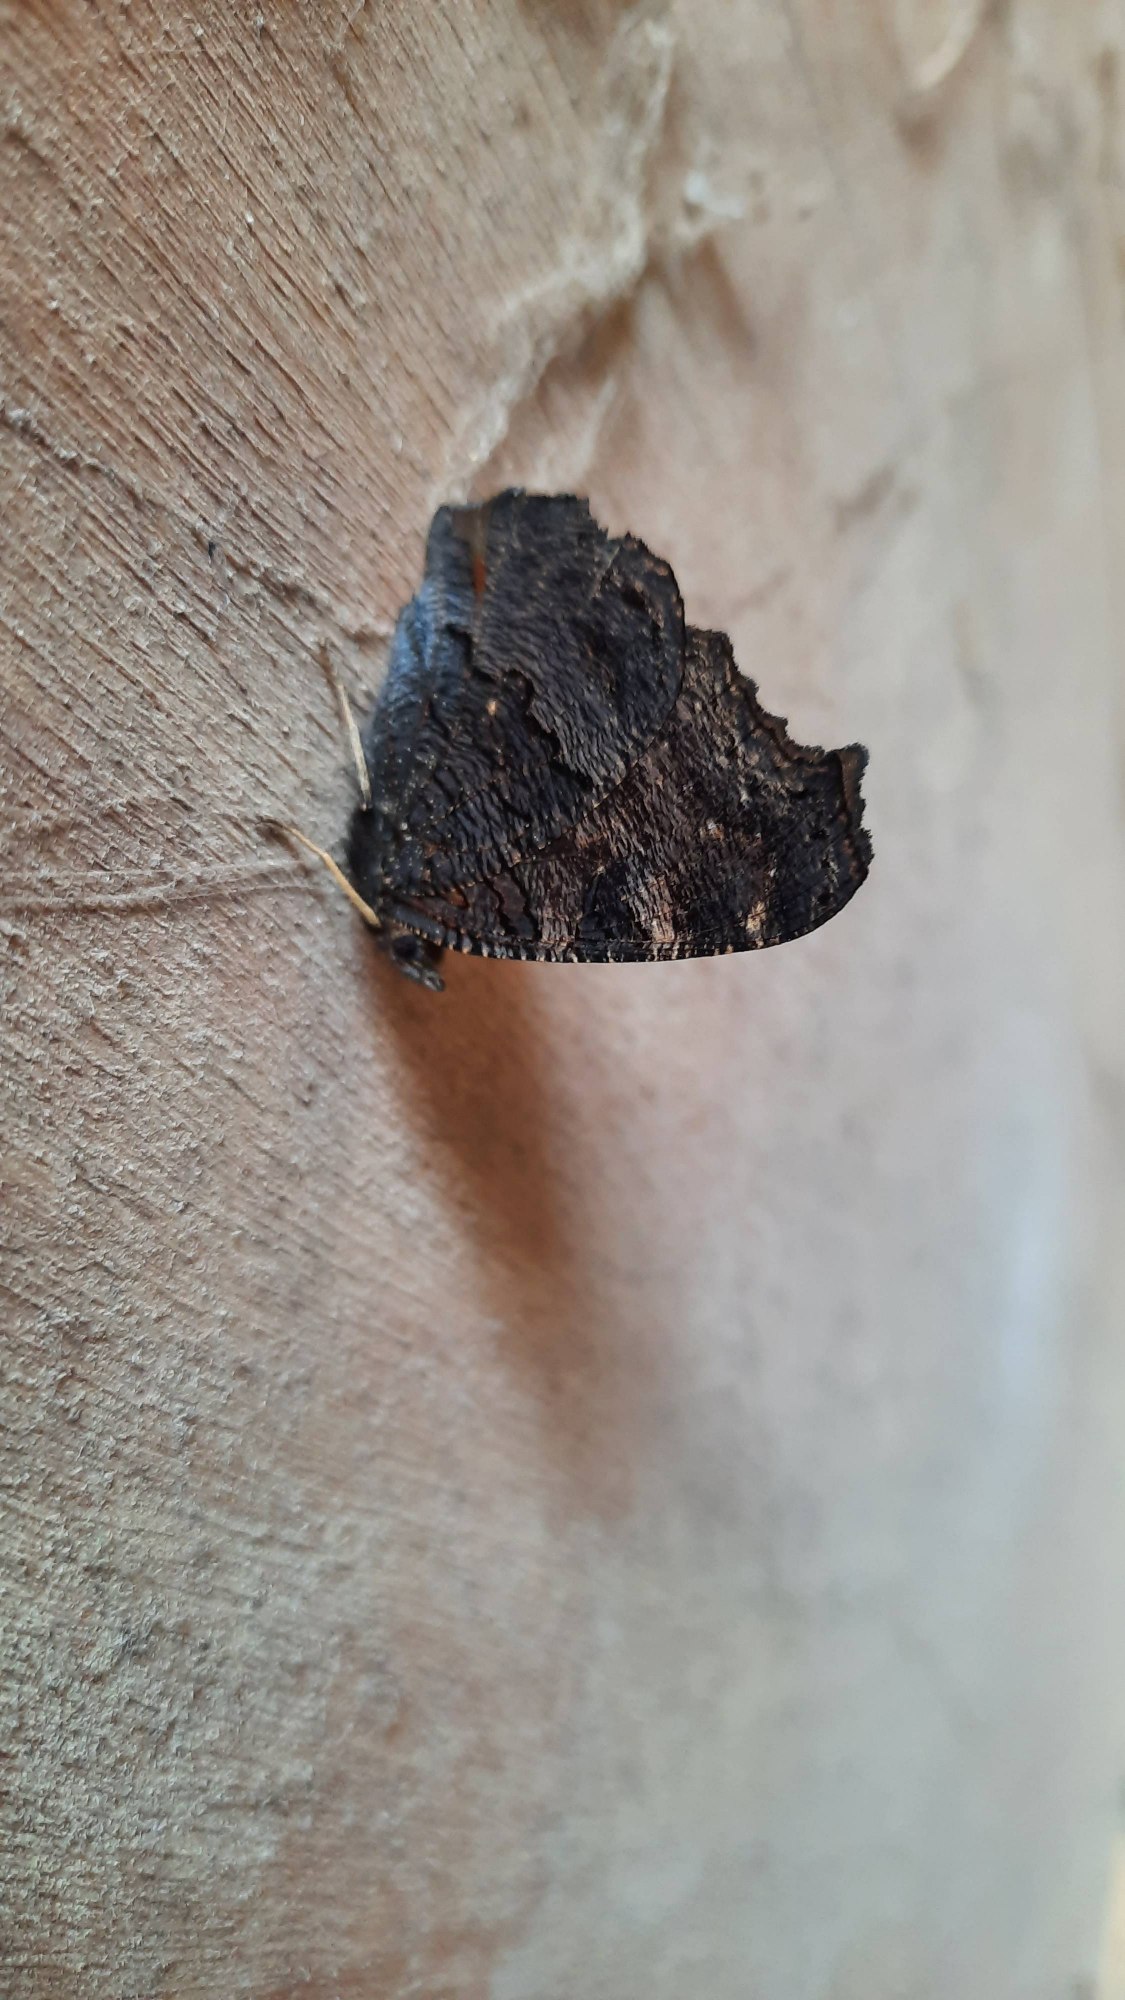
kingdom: Animalia
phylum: Arthropoda
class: Insecta
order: Lepidoptera
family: Nymphalidae
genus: Aglais
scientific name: Aglais io
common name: Dagpåfugleøje
